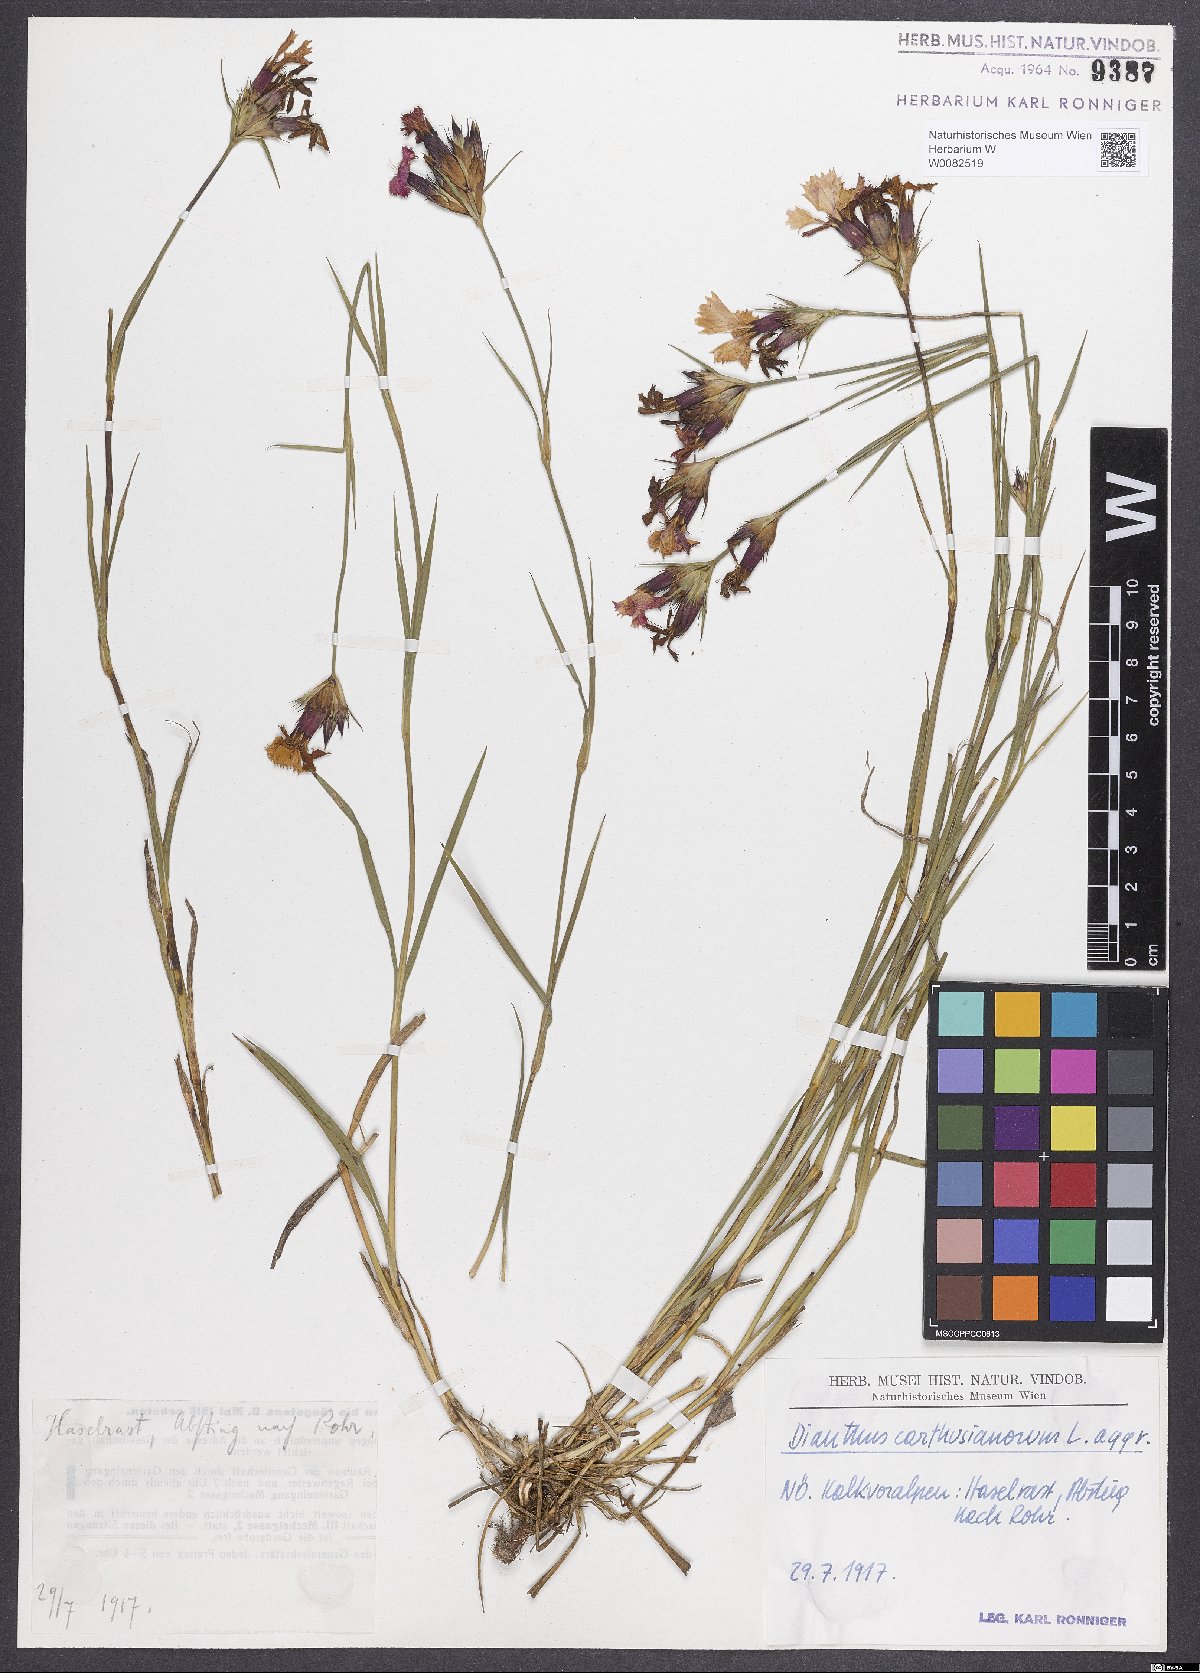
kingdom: Plantae
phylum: Tracheophyta
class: Magnoliopsida
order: Caryophyllales
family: Caryophyllaceae
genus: Dianthus
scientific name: Dianthus carthusianorum
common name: Carthusian pink
